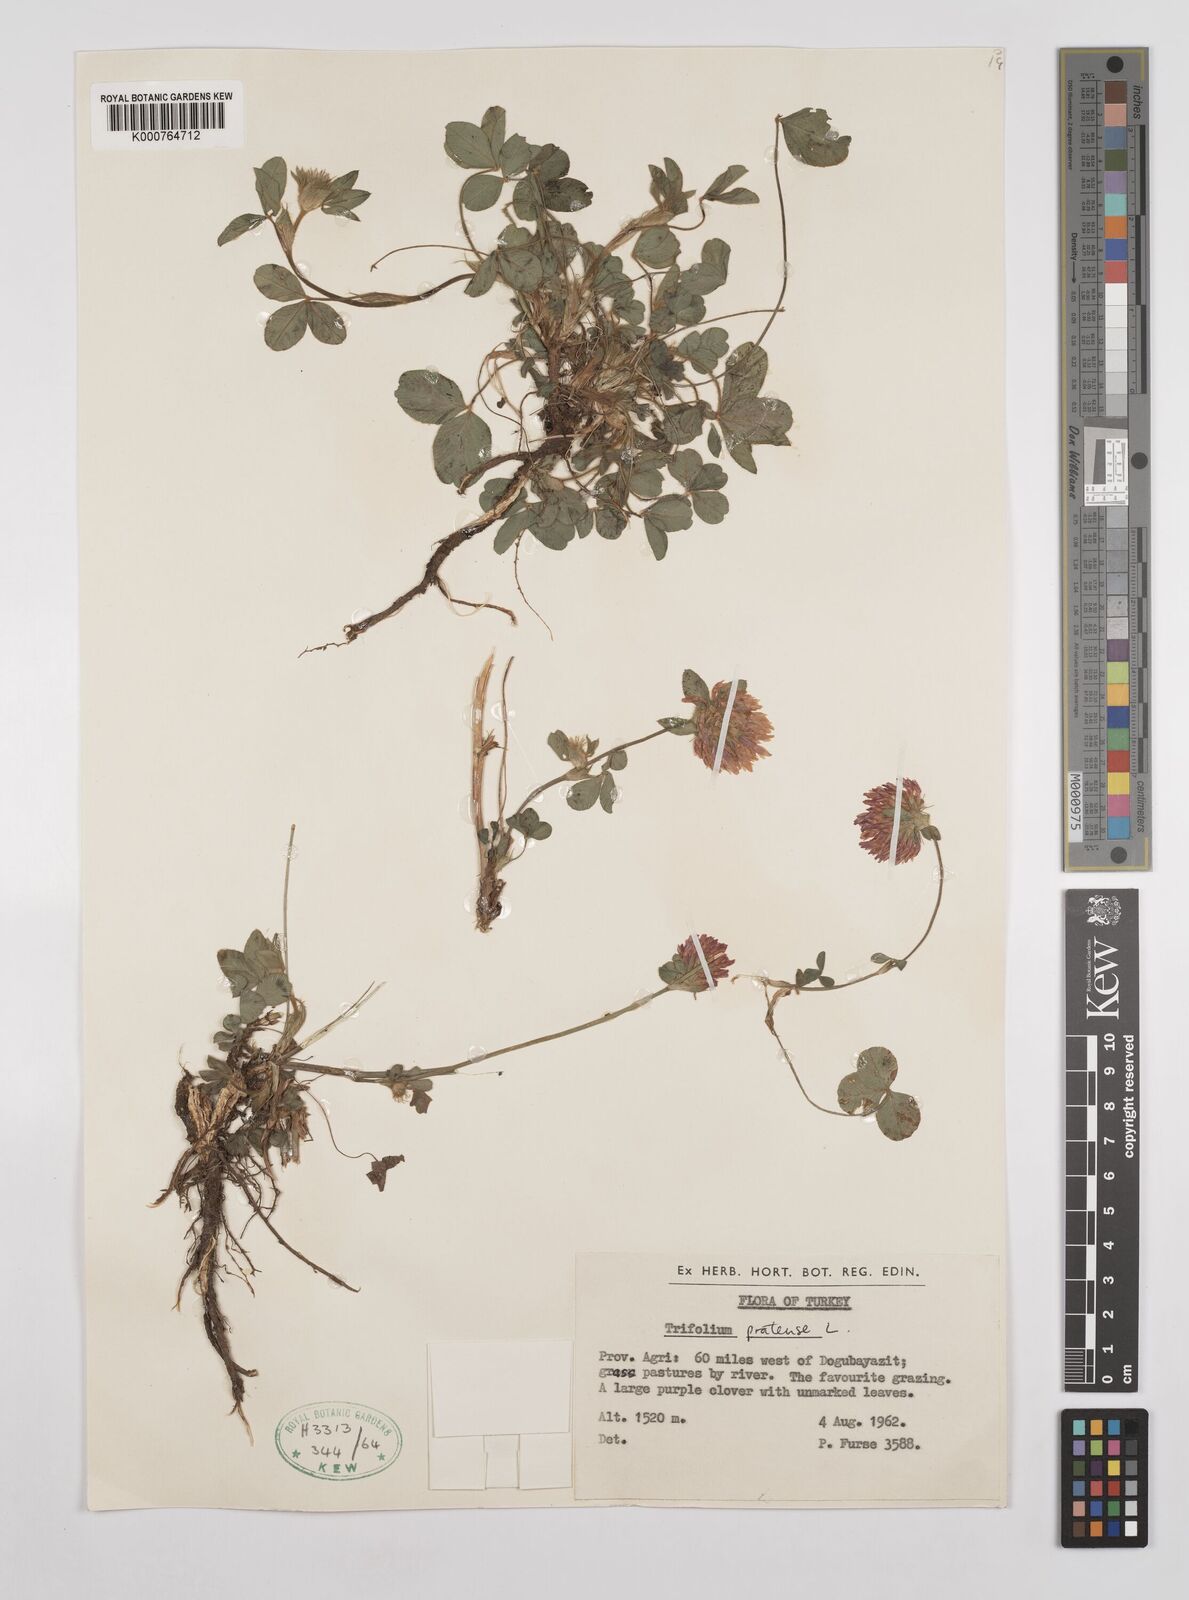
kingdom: Plantae
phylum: Tracheophyta
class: Magnoliopsida
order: Fabales
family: Fabaceae
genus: Trifolium
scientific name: Trifolium pratense
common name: Red clover
